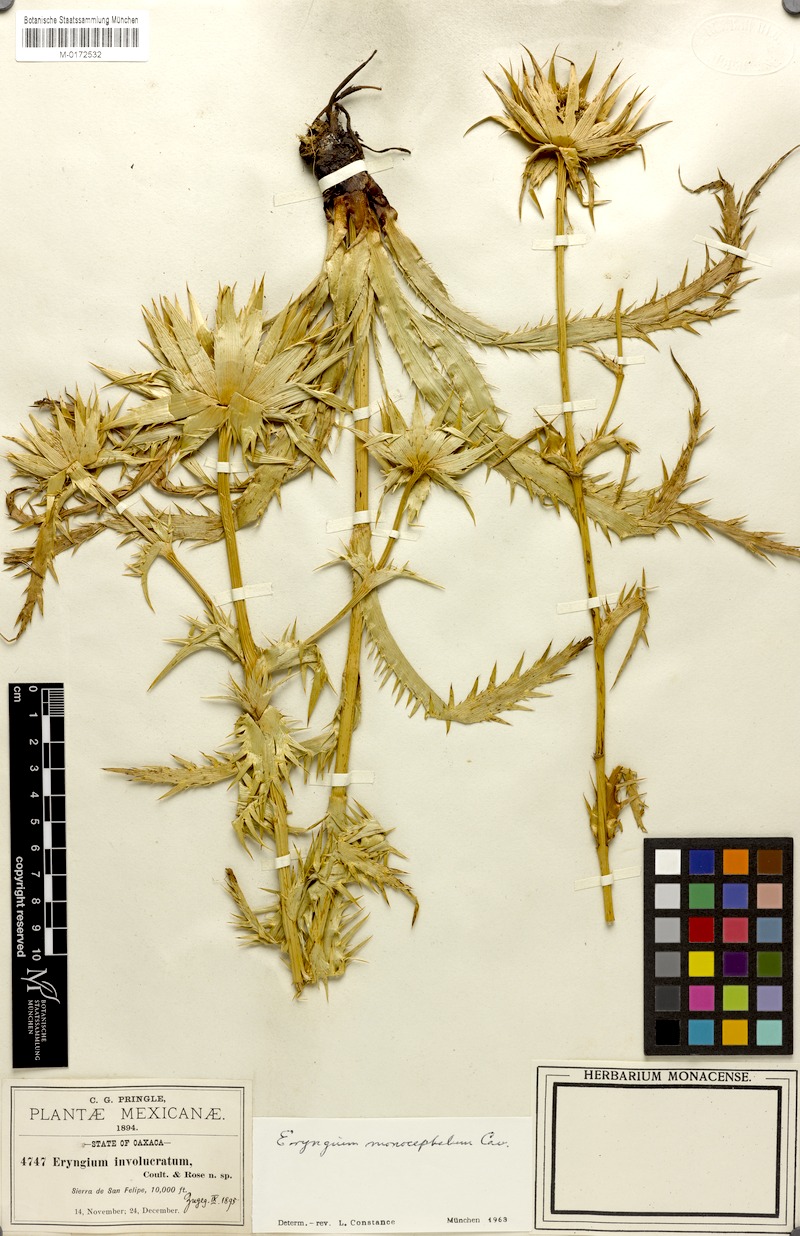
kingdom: Plantae
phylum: Tracheophyta
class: Magnoliopsida
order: Apiales
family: Apiaceae
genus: Eryngium
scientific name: Eryngium monocephalum
